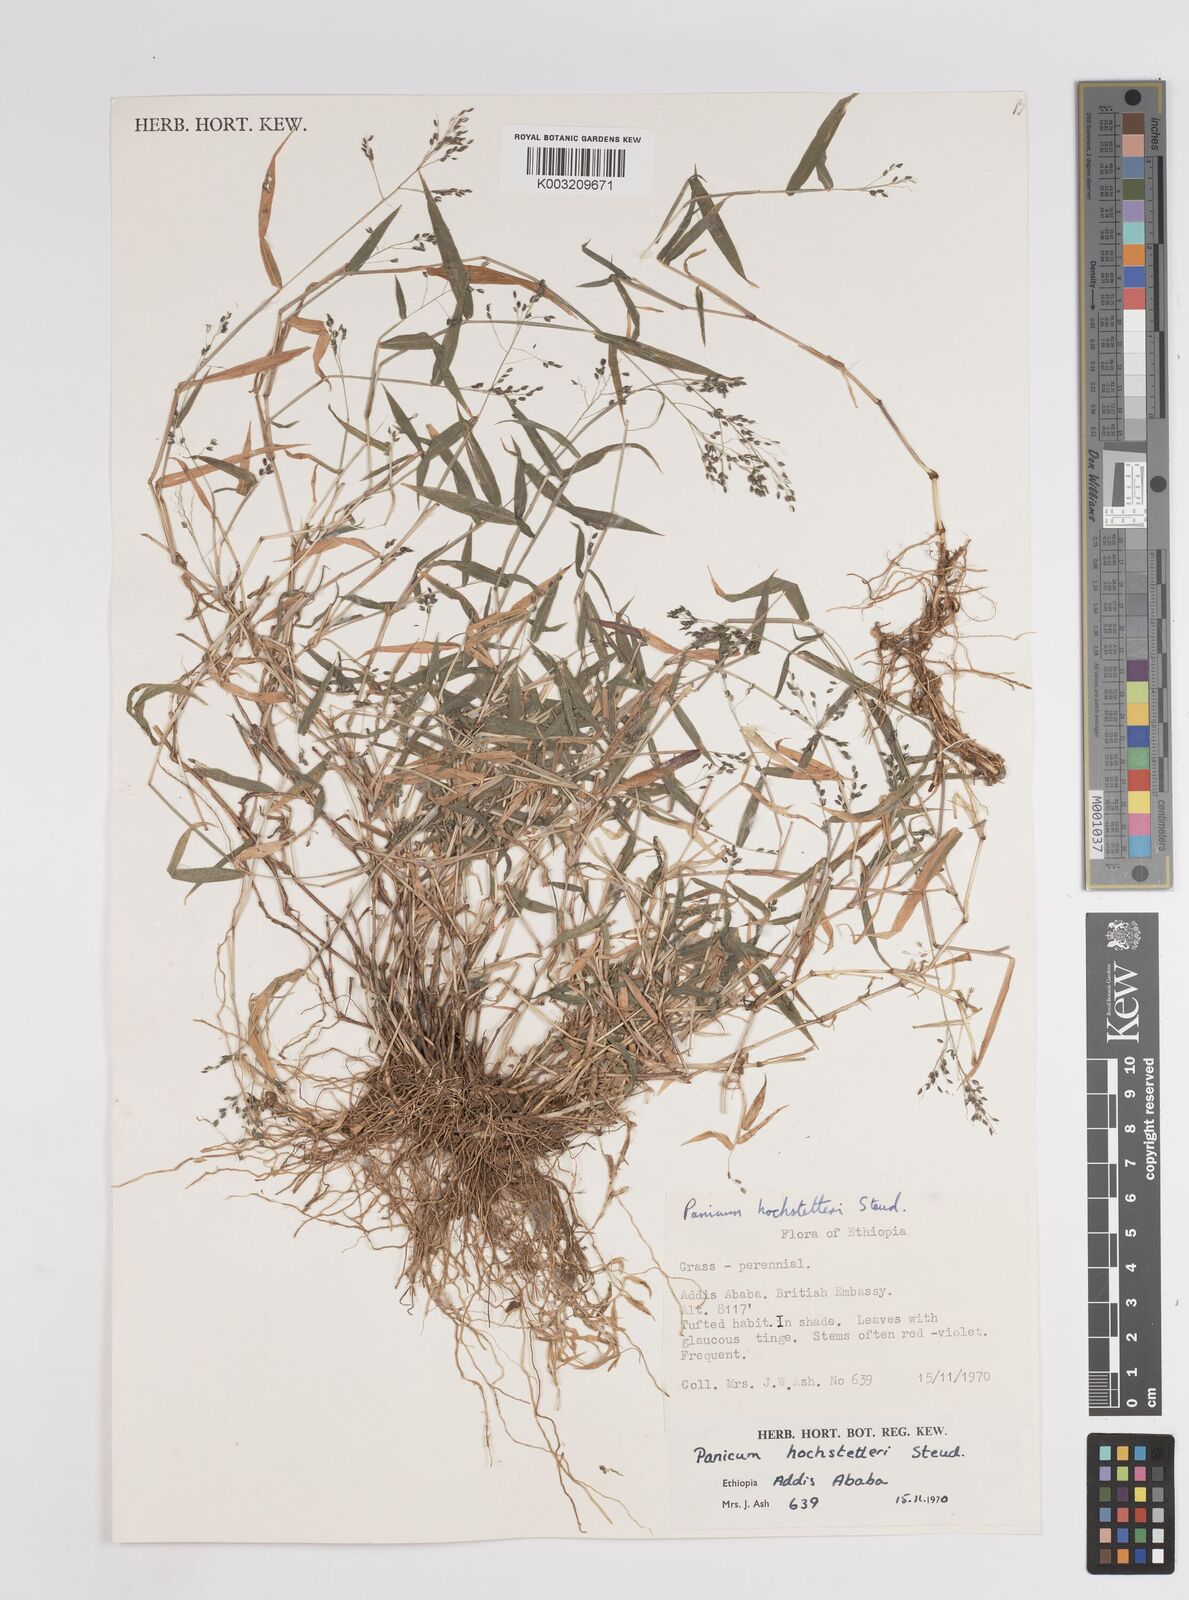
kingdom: Plantae
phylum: Tracheophyta
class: Liliopsida
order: Poales
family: Poaceae
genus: Panicum
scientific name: Panicum hochstetteri
